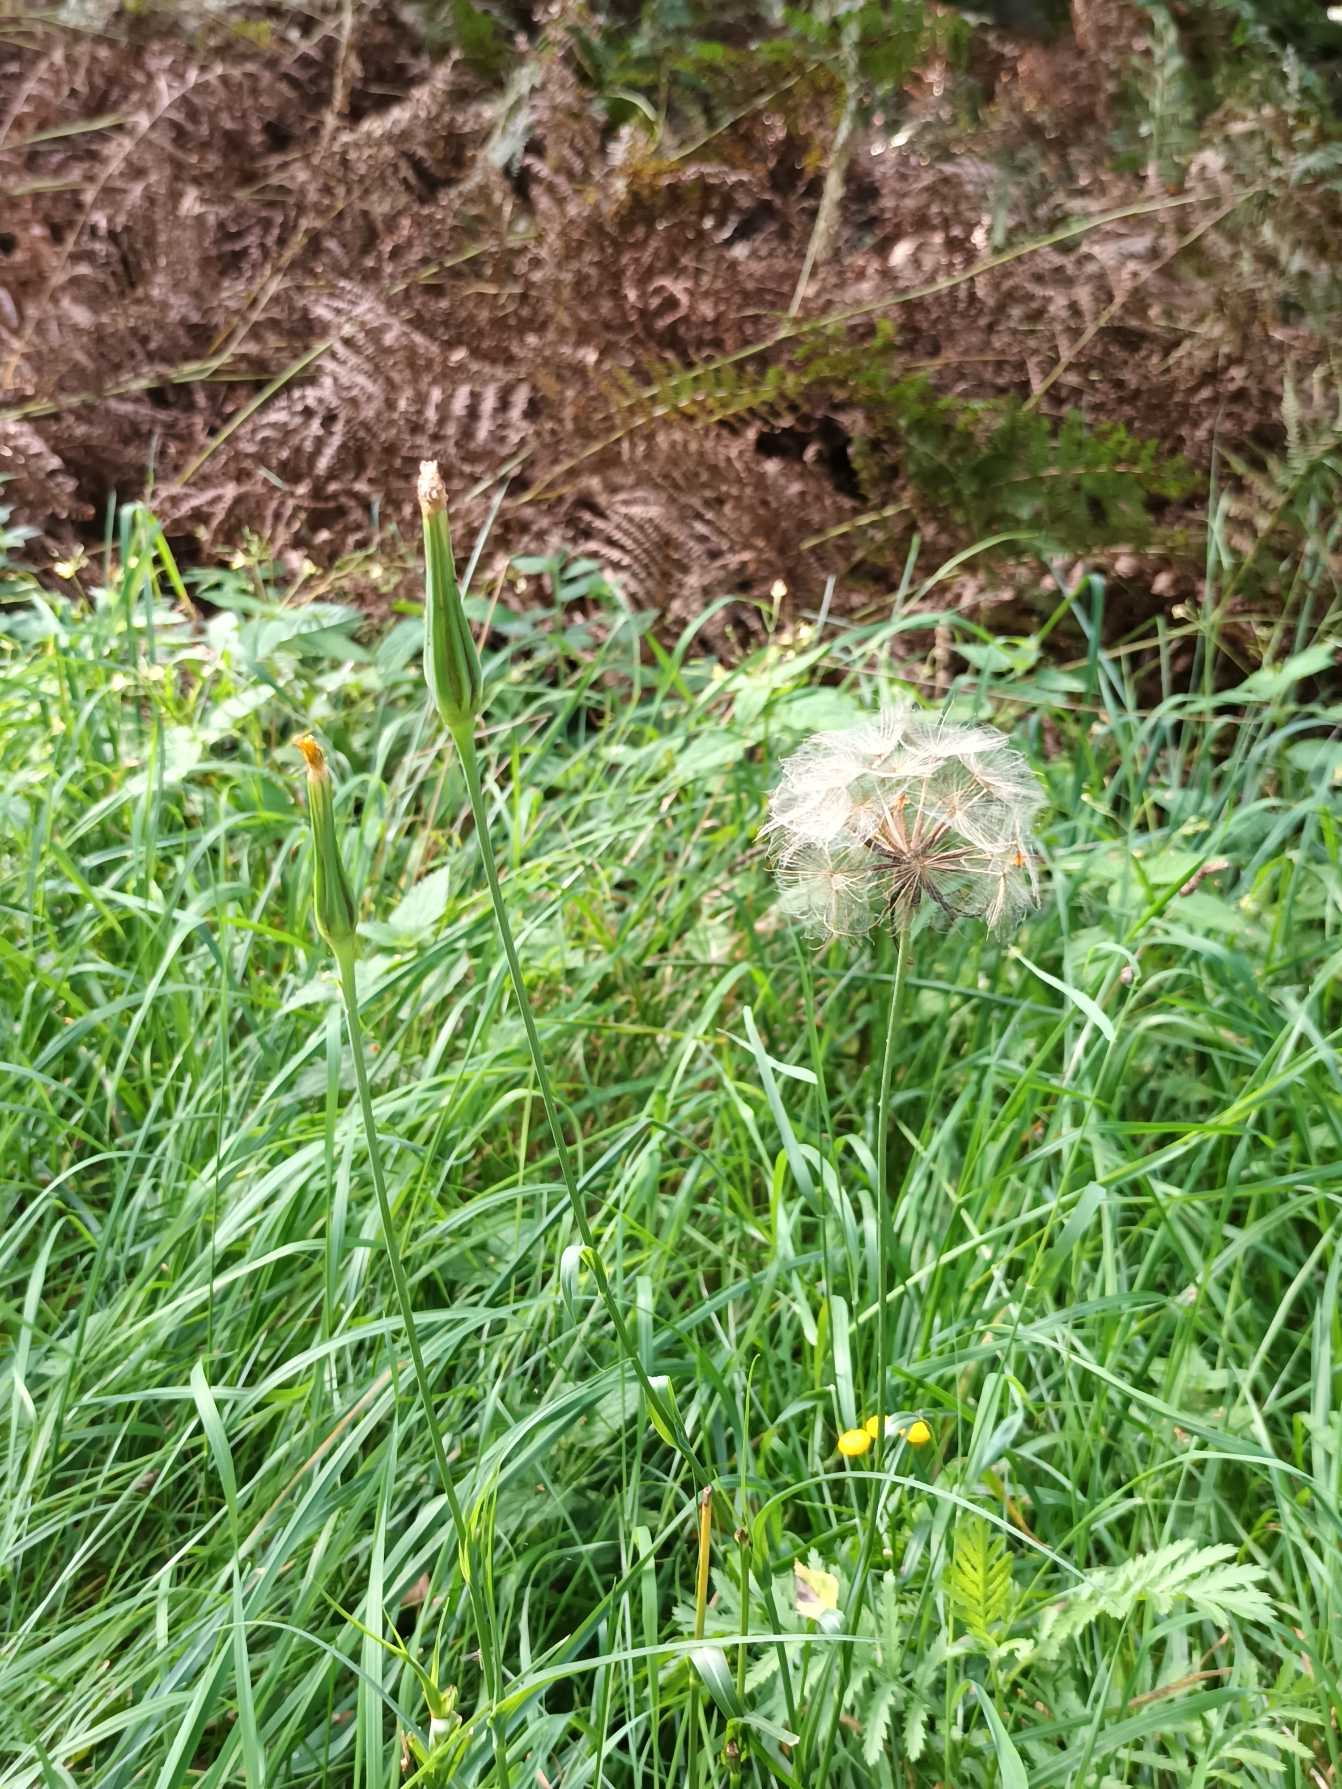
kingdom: Plantae
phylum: Tracheophyta
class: Magnoliopsida
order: Asterales
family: Asteraceae
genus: Tragopogon
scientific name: Tragopogon pratensis
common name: Gedeskæg
